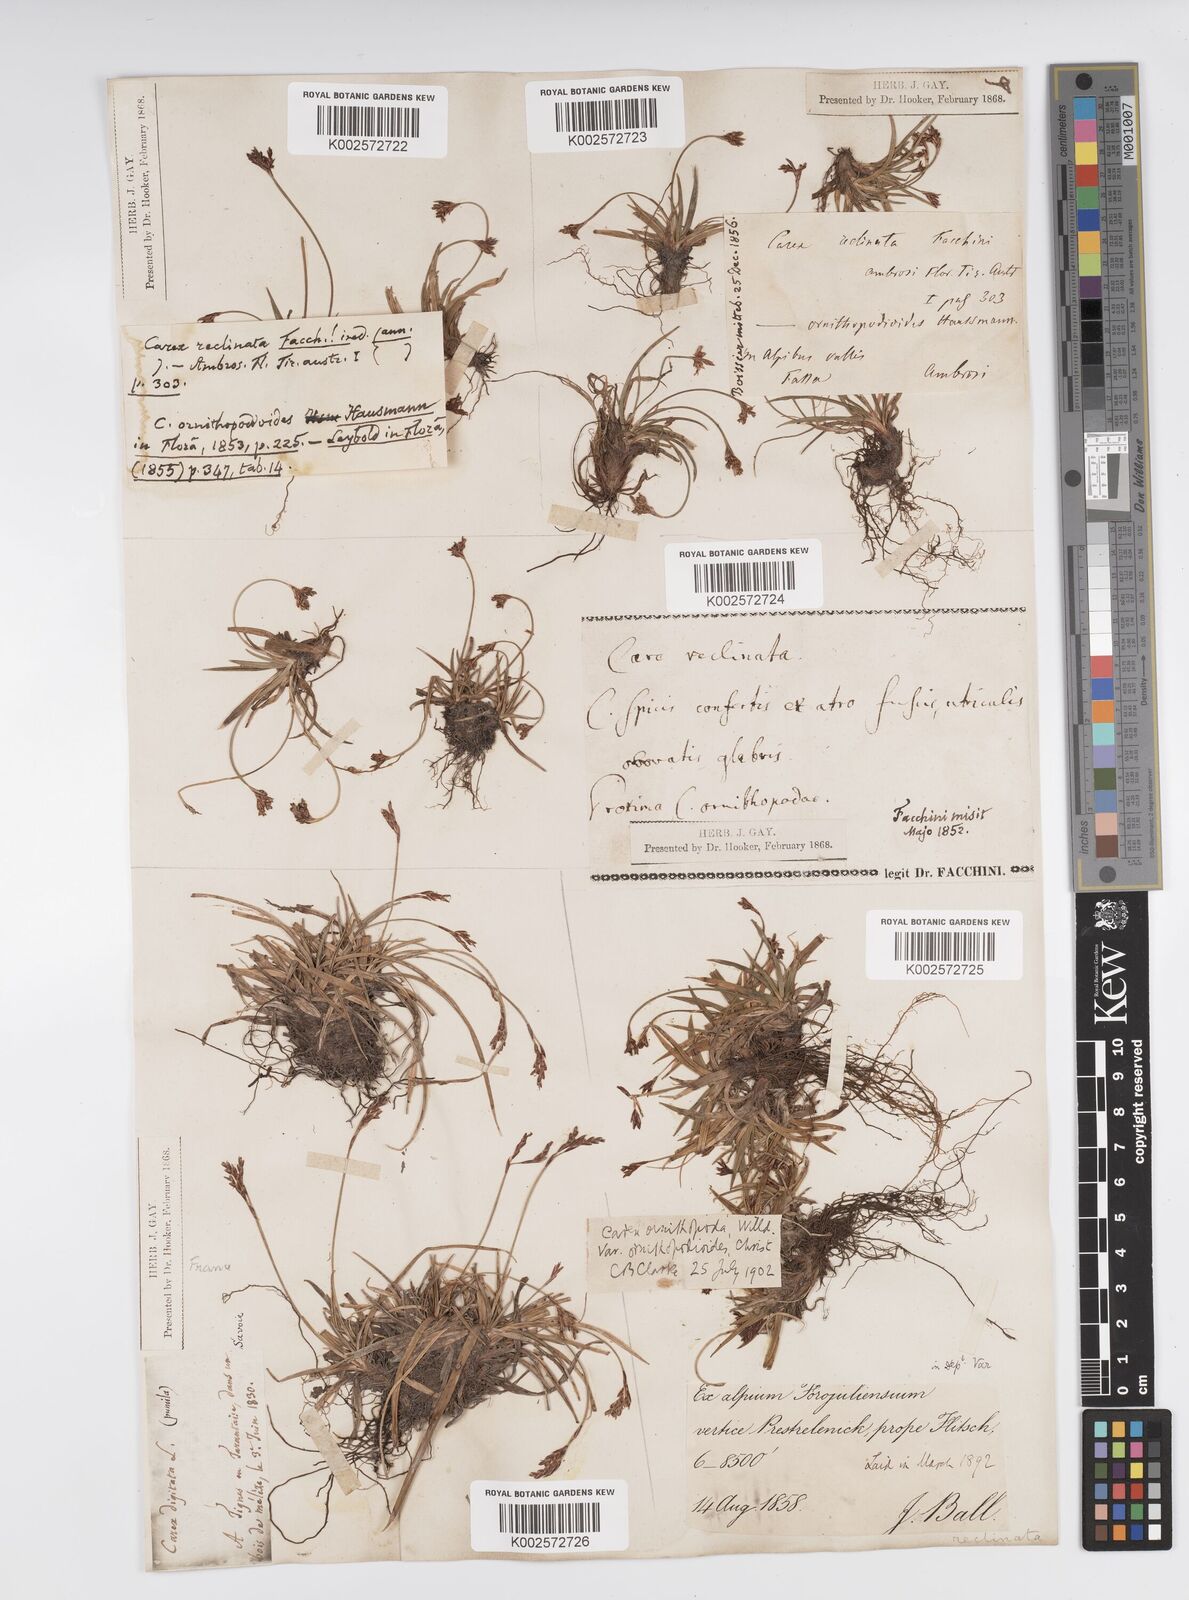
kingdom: Plantae
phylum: Tracheophyta
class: Liliopsida
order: Poales
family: Cyperaceae
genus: Carex
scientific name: Carex ornithopoda
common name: Bird's-foot sedge
